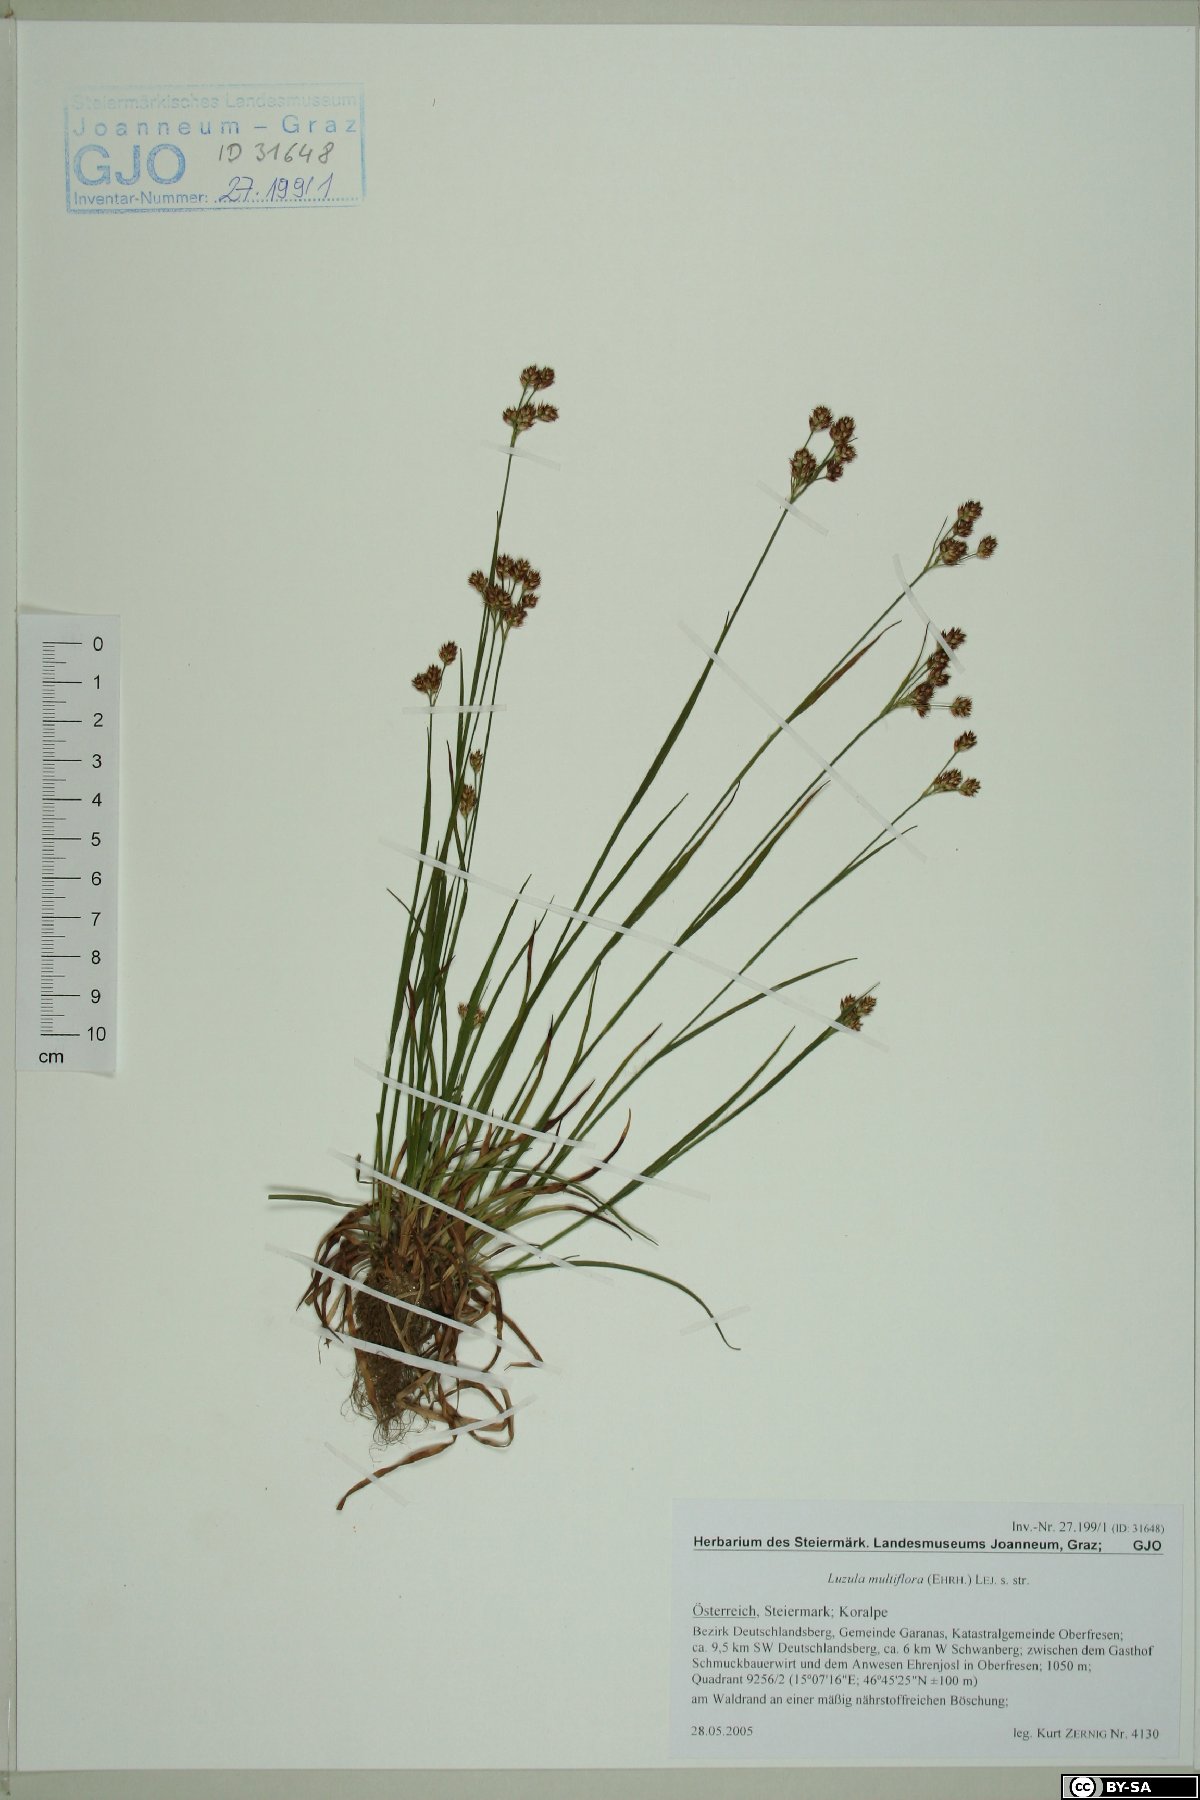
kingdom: Plantae
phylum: Tracheophyta
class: Liliopsida
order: Poales
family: Juncaceae
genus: Luzula
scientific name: Luzula multiflora
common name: Heath wood-rush
